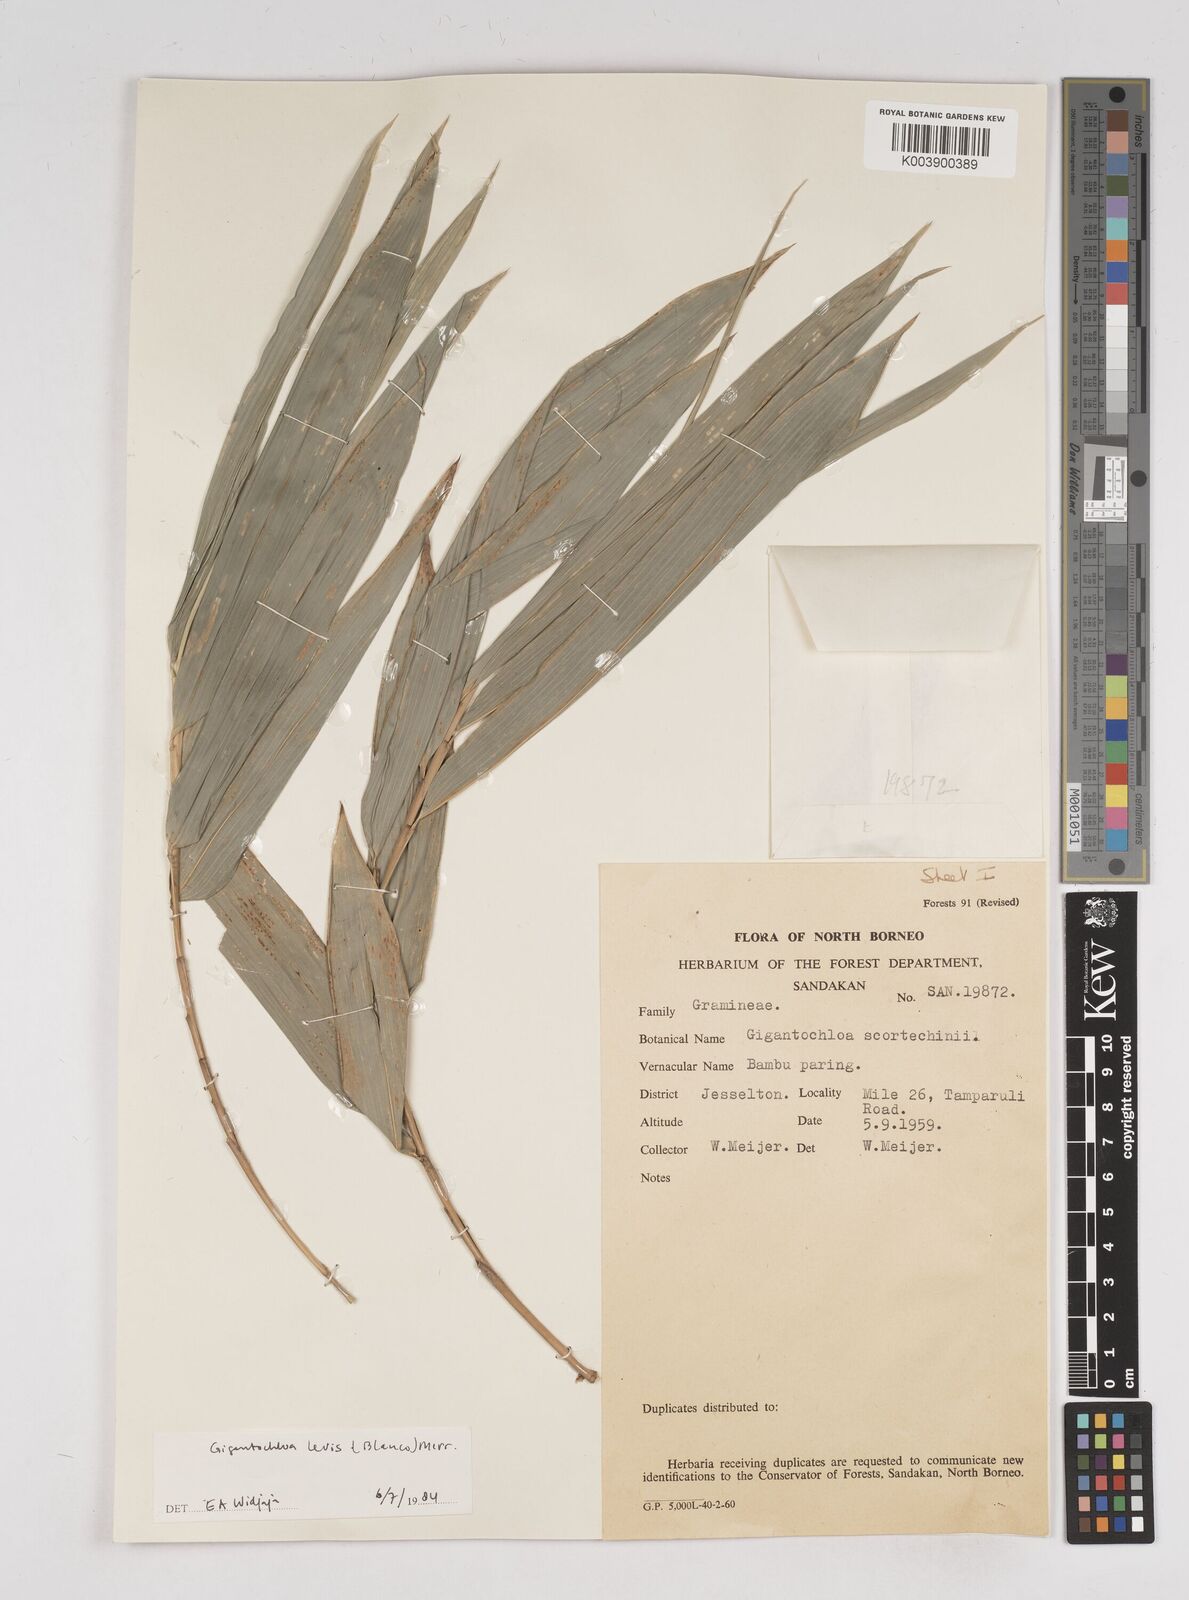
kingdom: Plantae
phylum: Tracheophyta
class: Liliopsida
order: Poales
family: Poaceae
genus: Gigantochloa
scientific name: Gigantochloa levis
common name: Smooth-shoot gigantochloa
